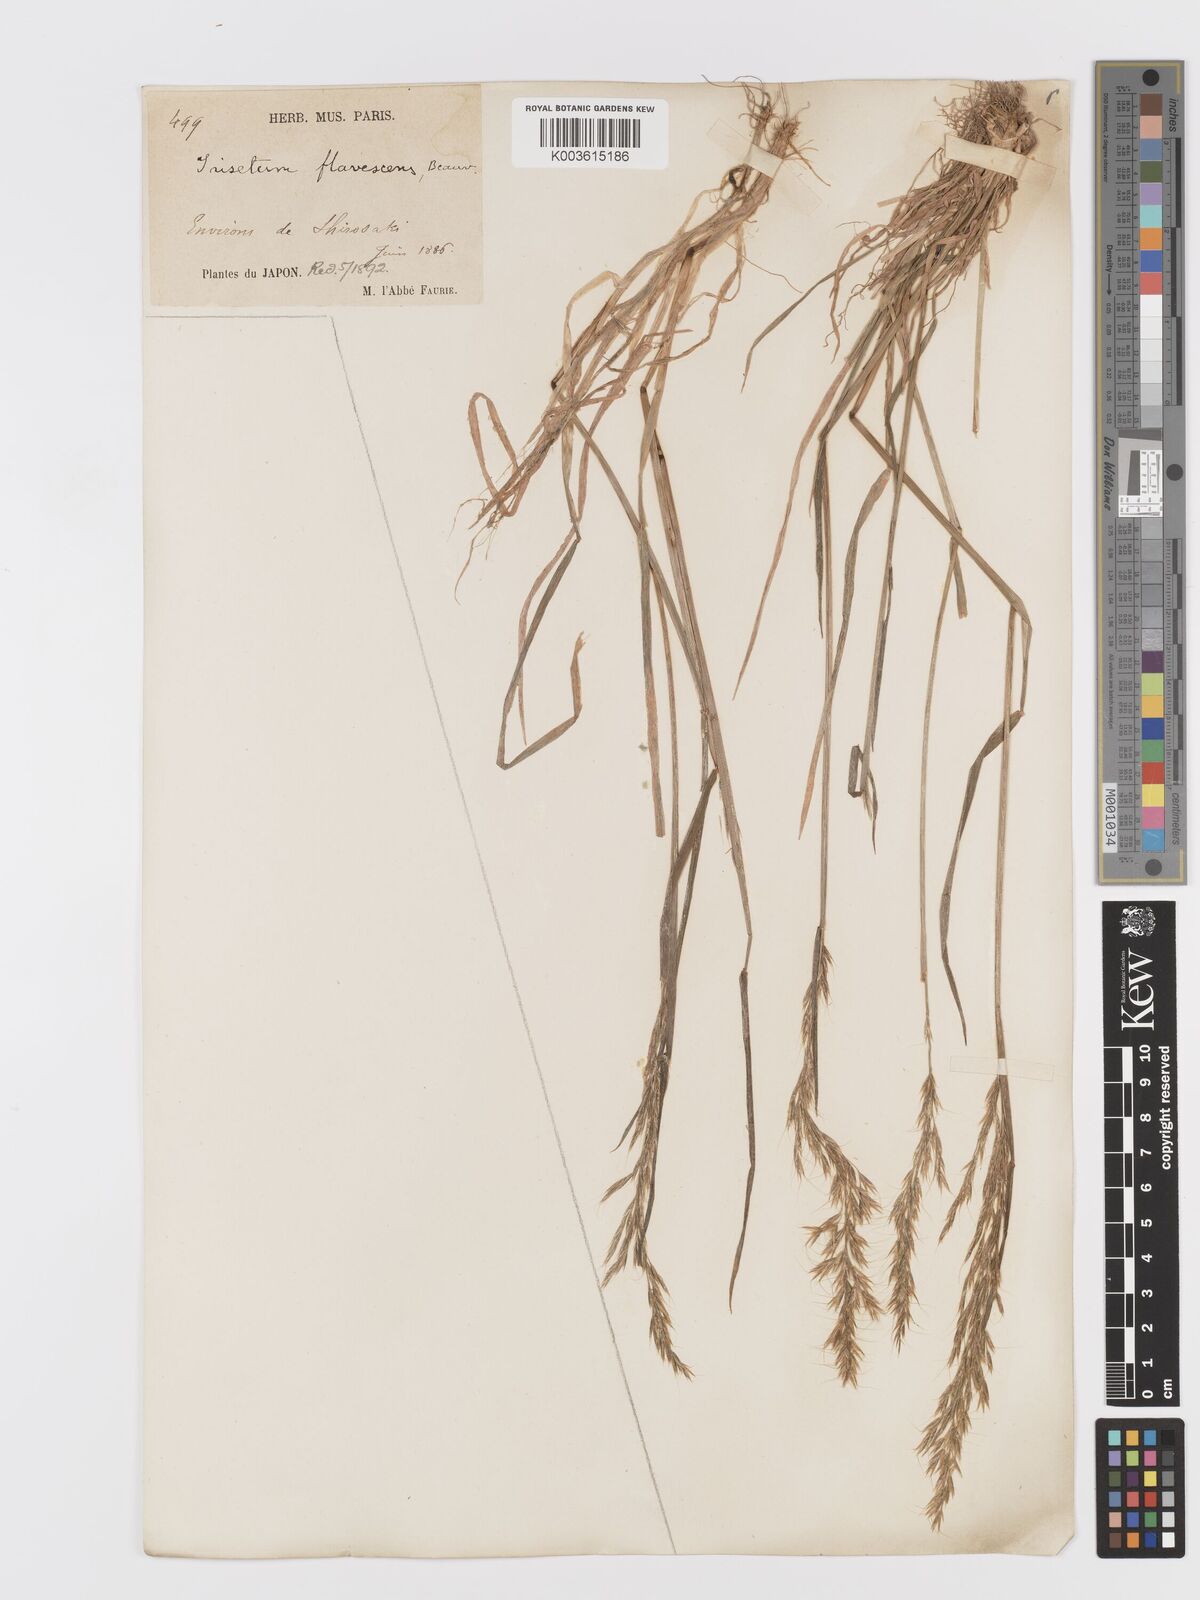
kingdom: Plantae
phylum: Tracheophyta
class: Liliopsida
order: Poales
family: Poaceae
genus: Sibirotrisetum
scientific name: Sibirotrisetum bifidum
